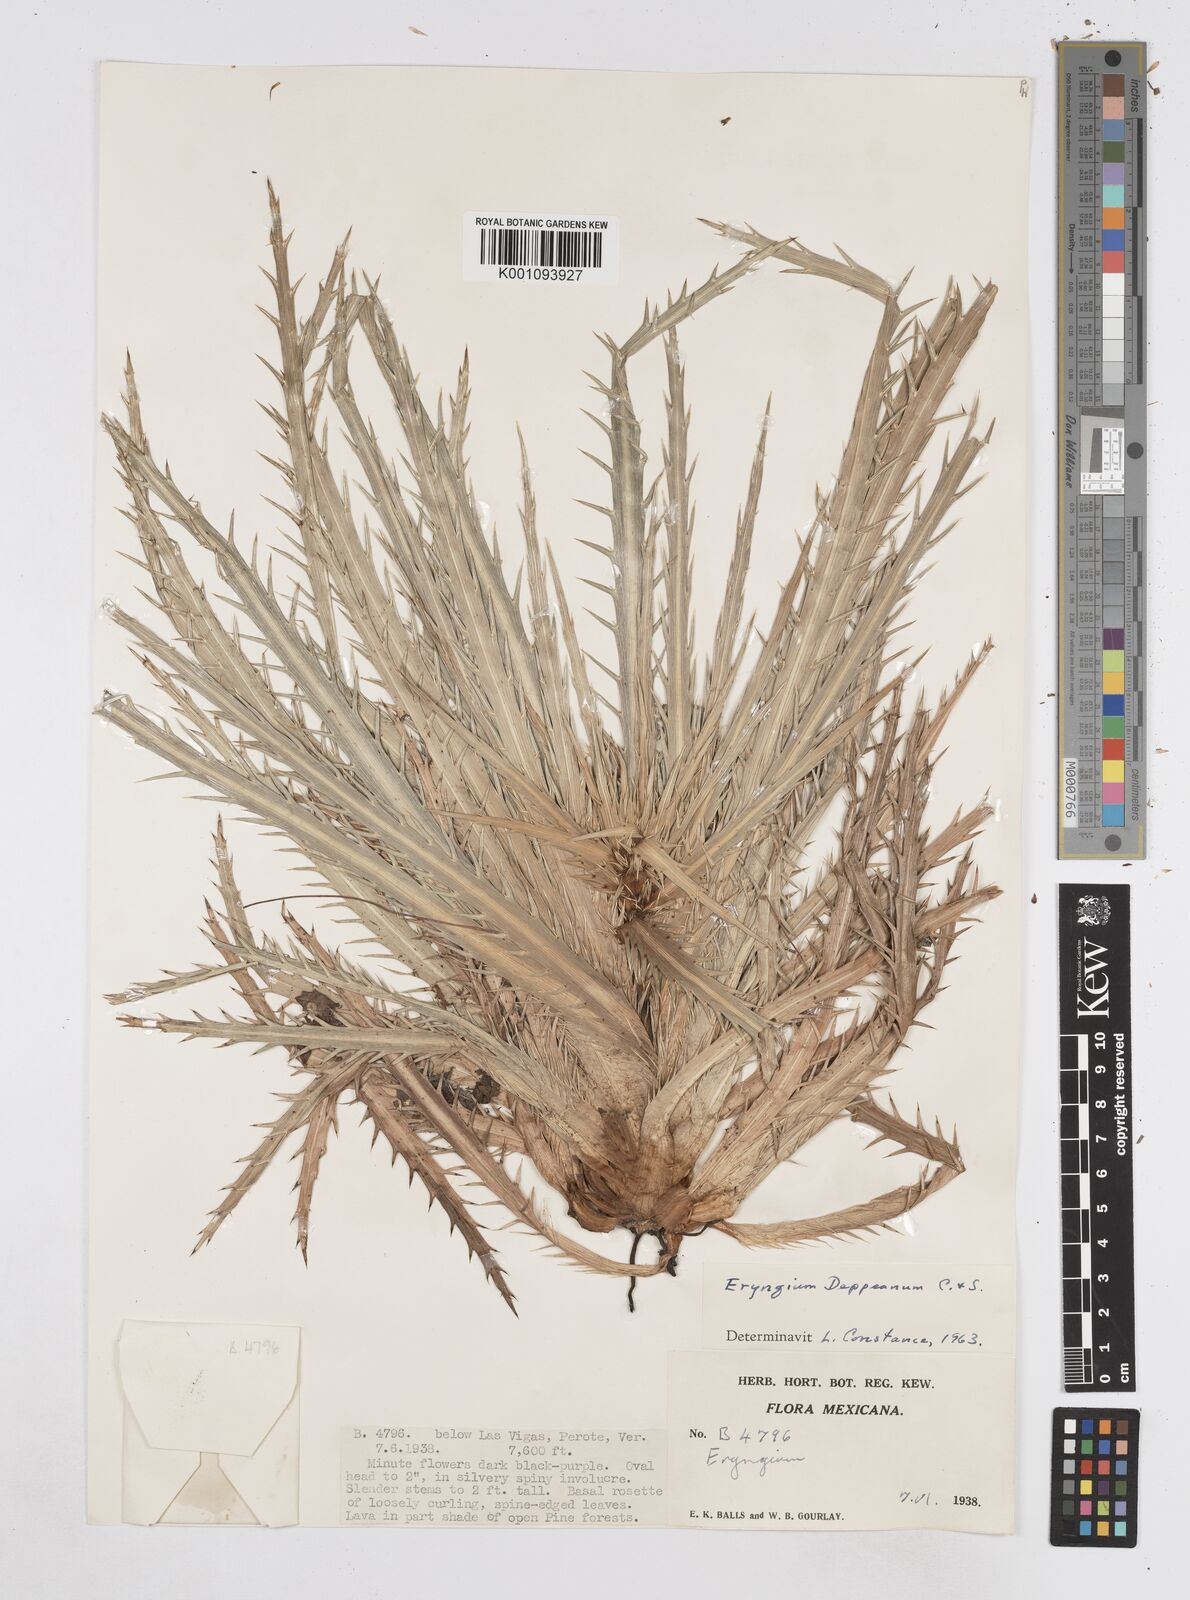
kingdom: Plantae
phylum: Tracheophyta
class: Magnoliopsida
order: Apiales
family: Apiaceae
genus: Eryngium
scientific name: Eryngium
